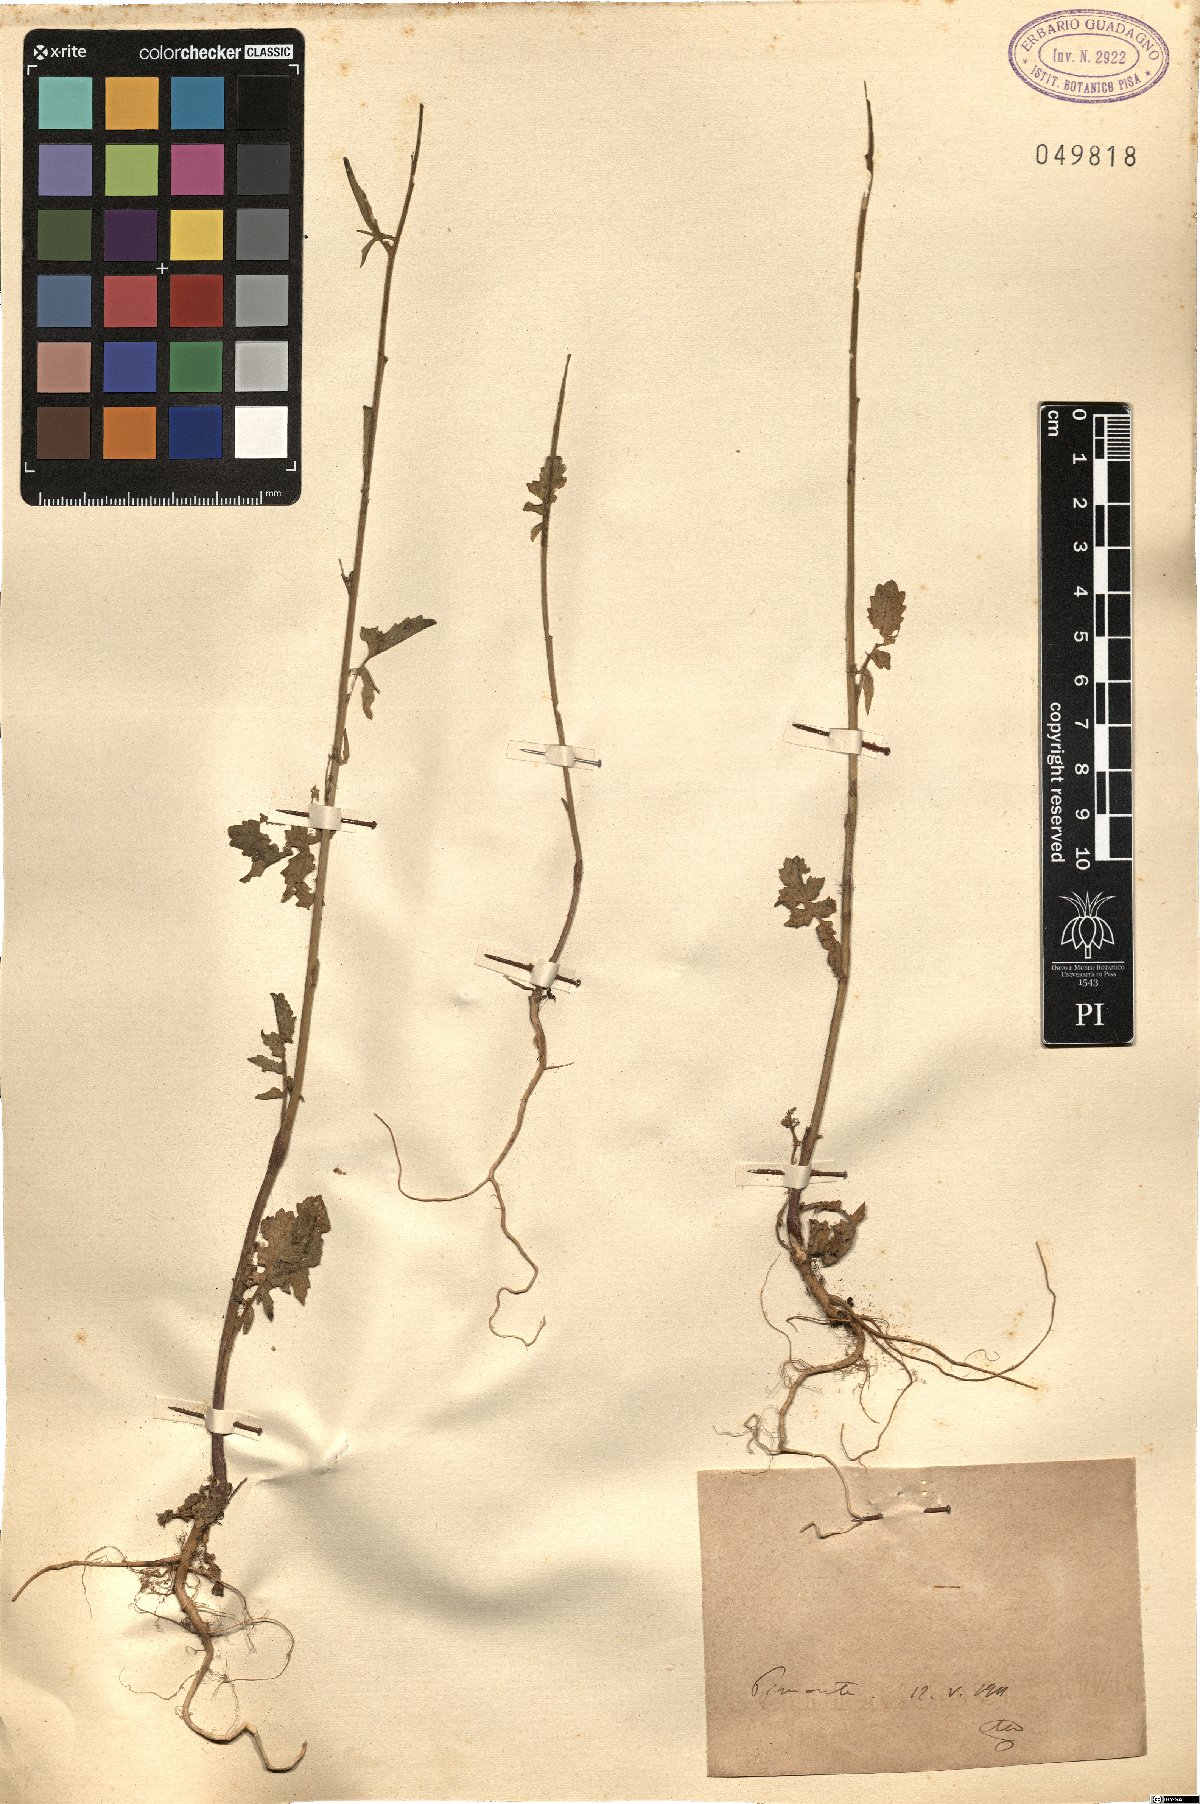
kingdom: Plantae
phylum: Tracheophyta
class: Magnoliopsida
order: Brassicales
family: Brassicaceae
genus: Sisymbrium
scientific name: Sisymbrium
